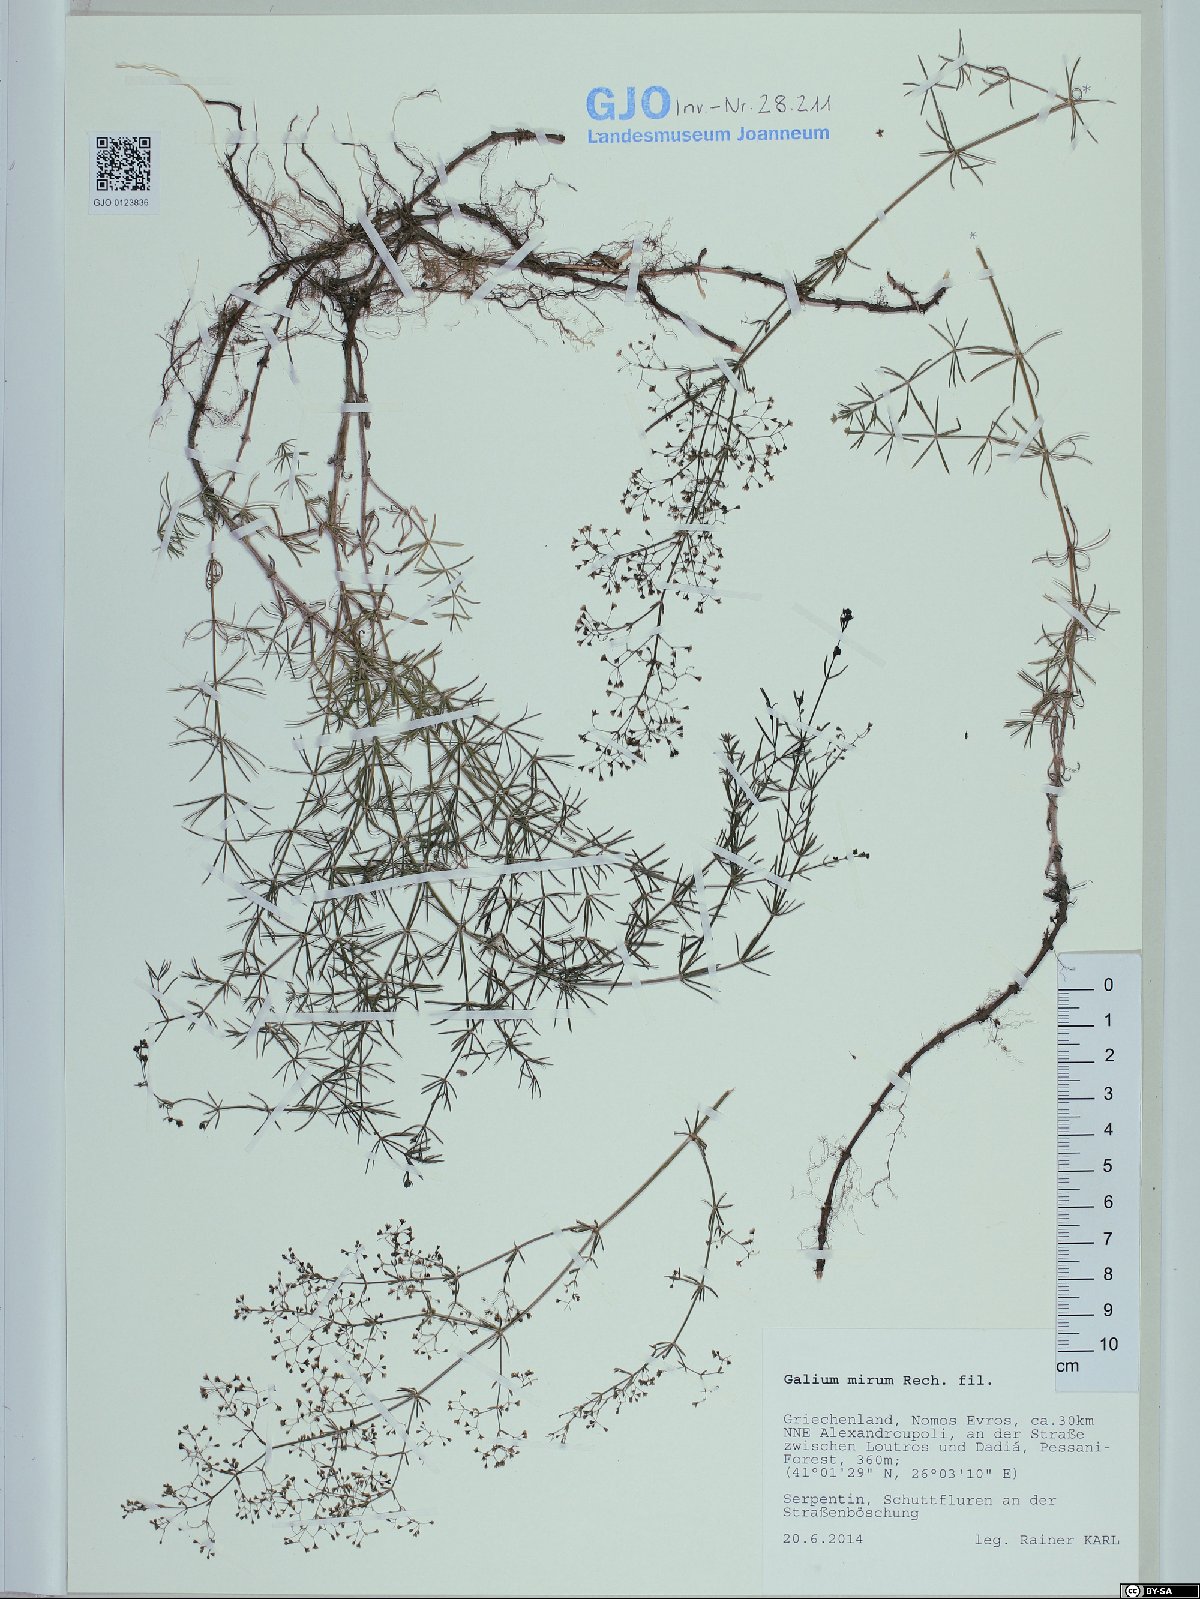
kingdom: Plantae
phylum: Tracheophyta
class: Magnoliopsida
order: Gentianales
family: Rubiaceae
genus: Galium
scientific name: Galium mirum
